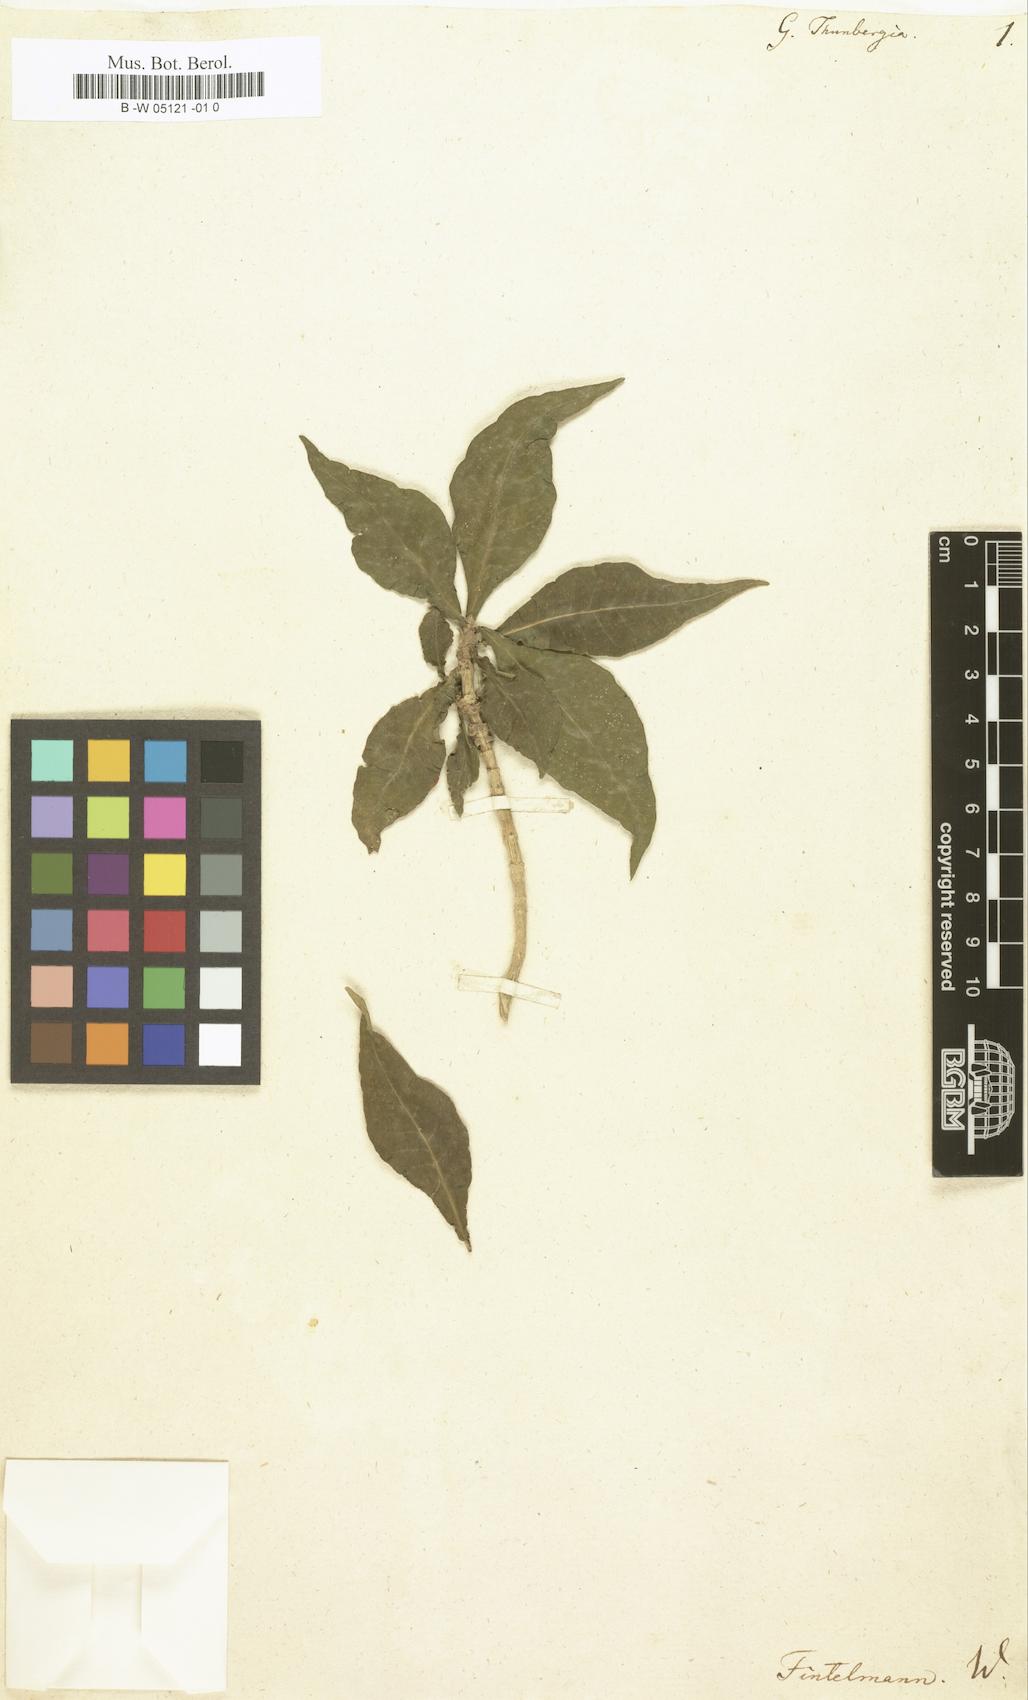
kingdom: Plantae
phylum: Tracheophyta
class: Magnoliopsida
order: Gentianales
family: Rubiaceae
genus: Gardenia
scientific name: Gardenia thunbergia
